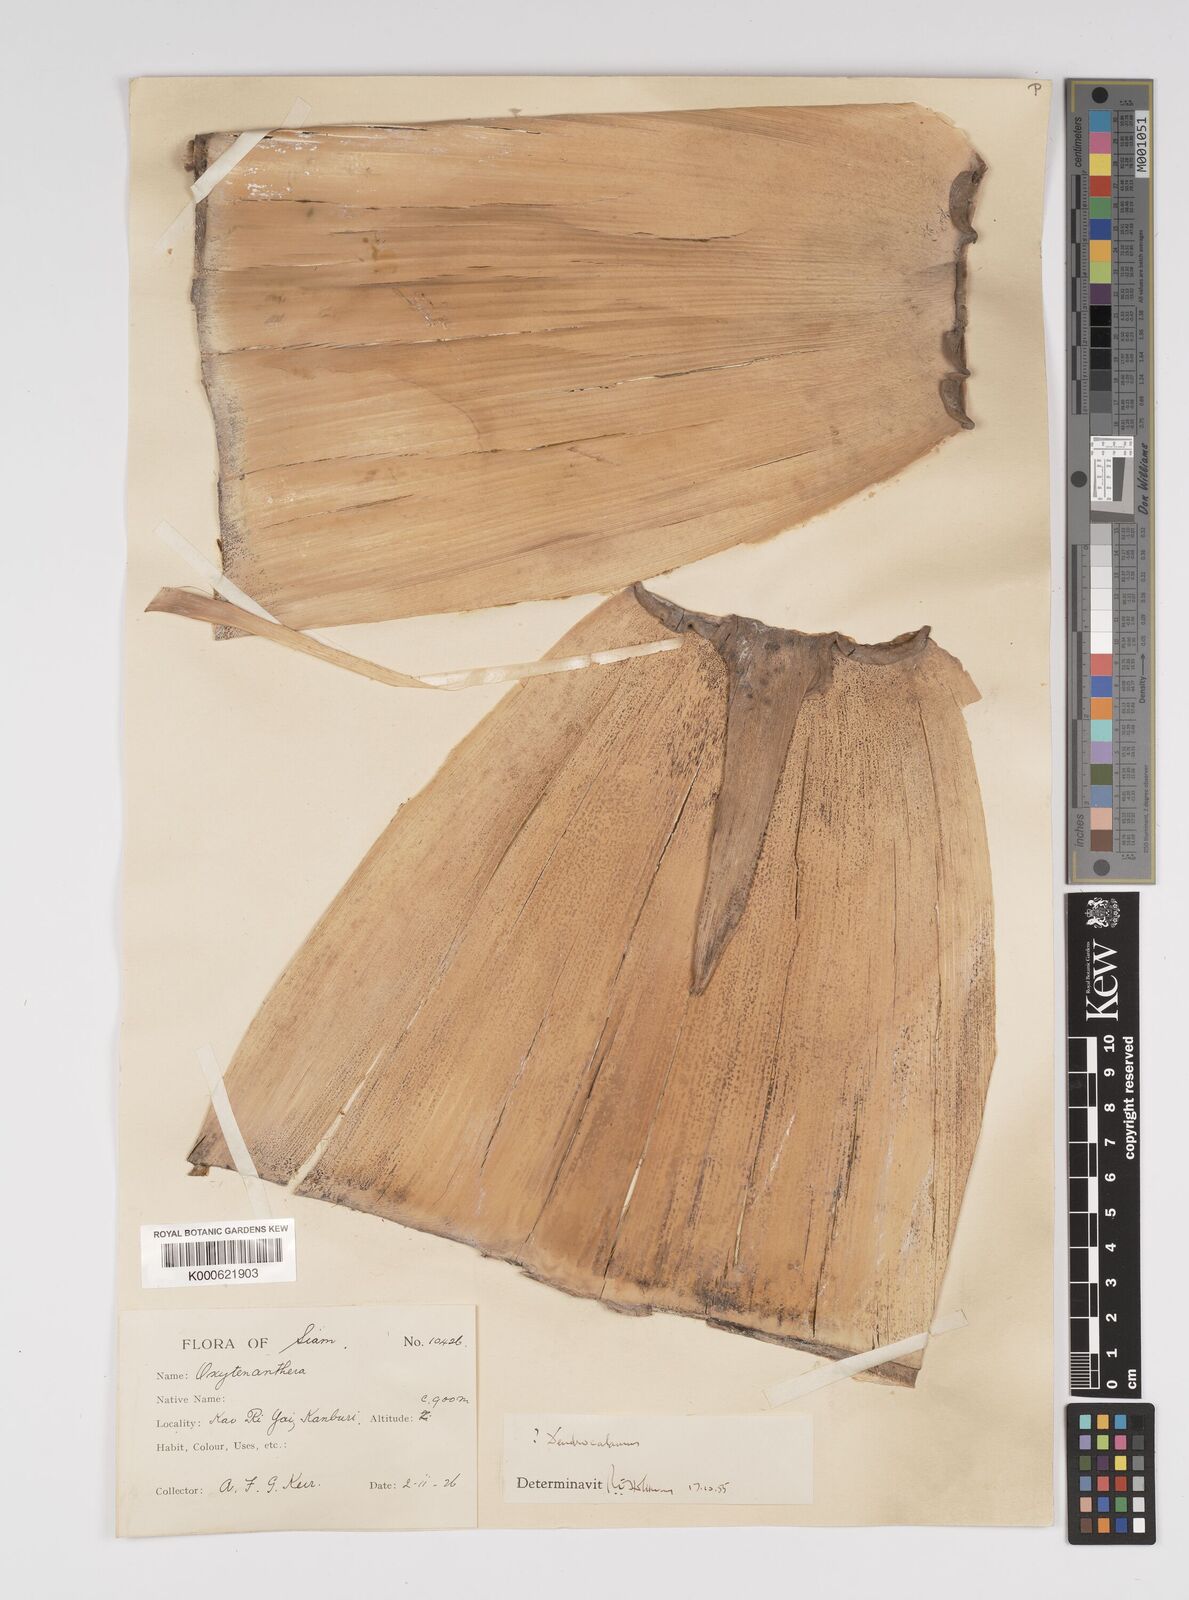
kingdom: Plantae
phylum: Tracheophyta
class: Liliopsida
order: Poales
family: Poaceae
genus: Bambusa
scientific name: Bambusa
